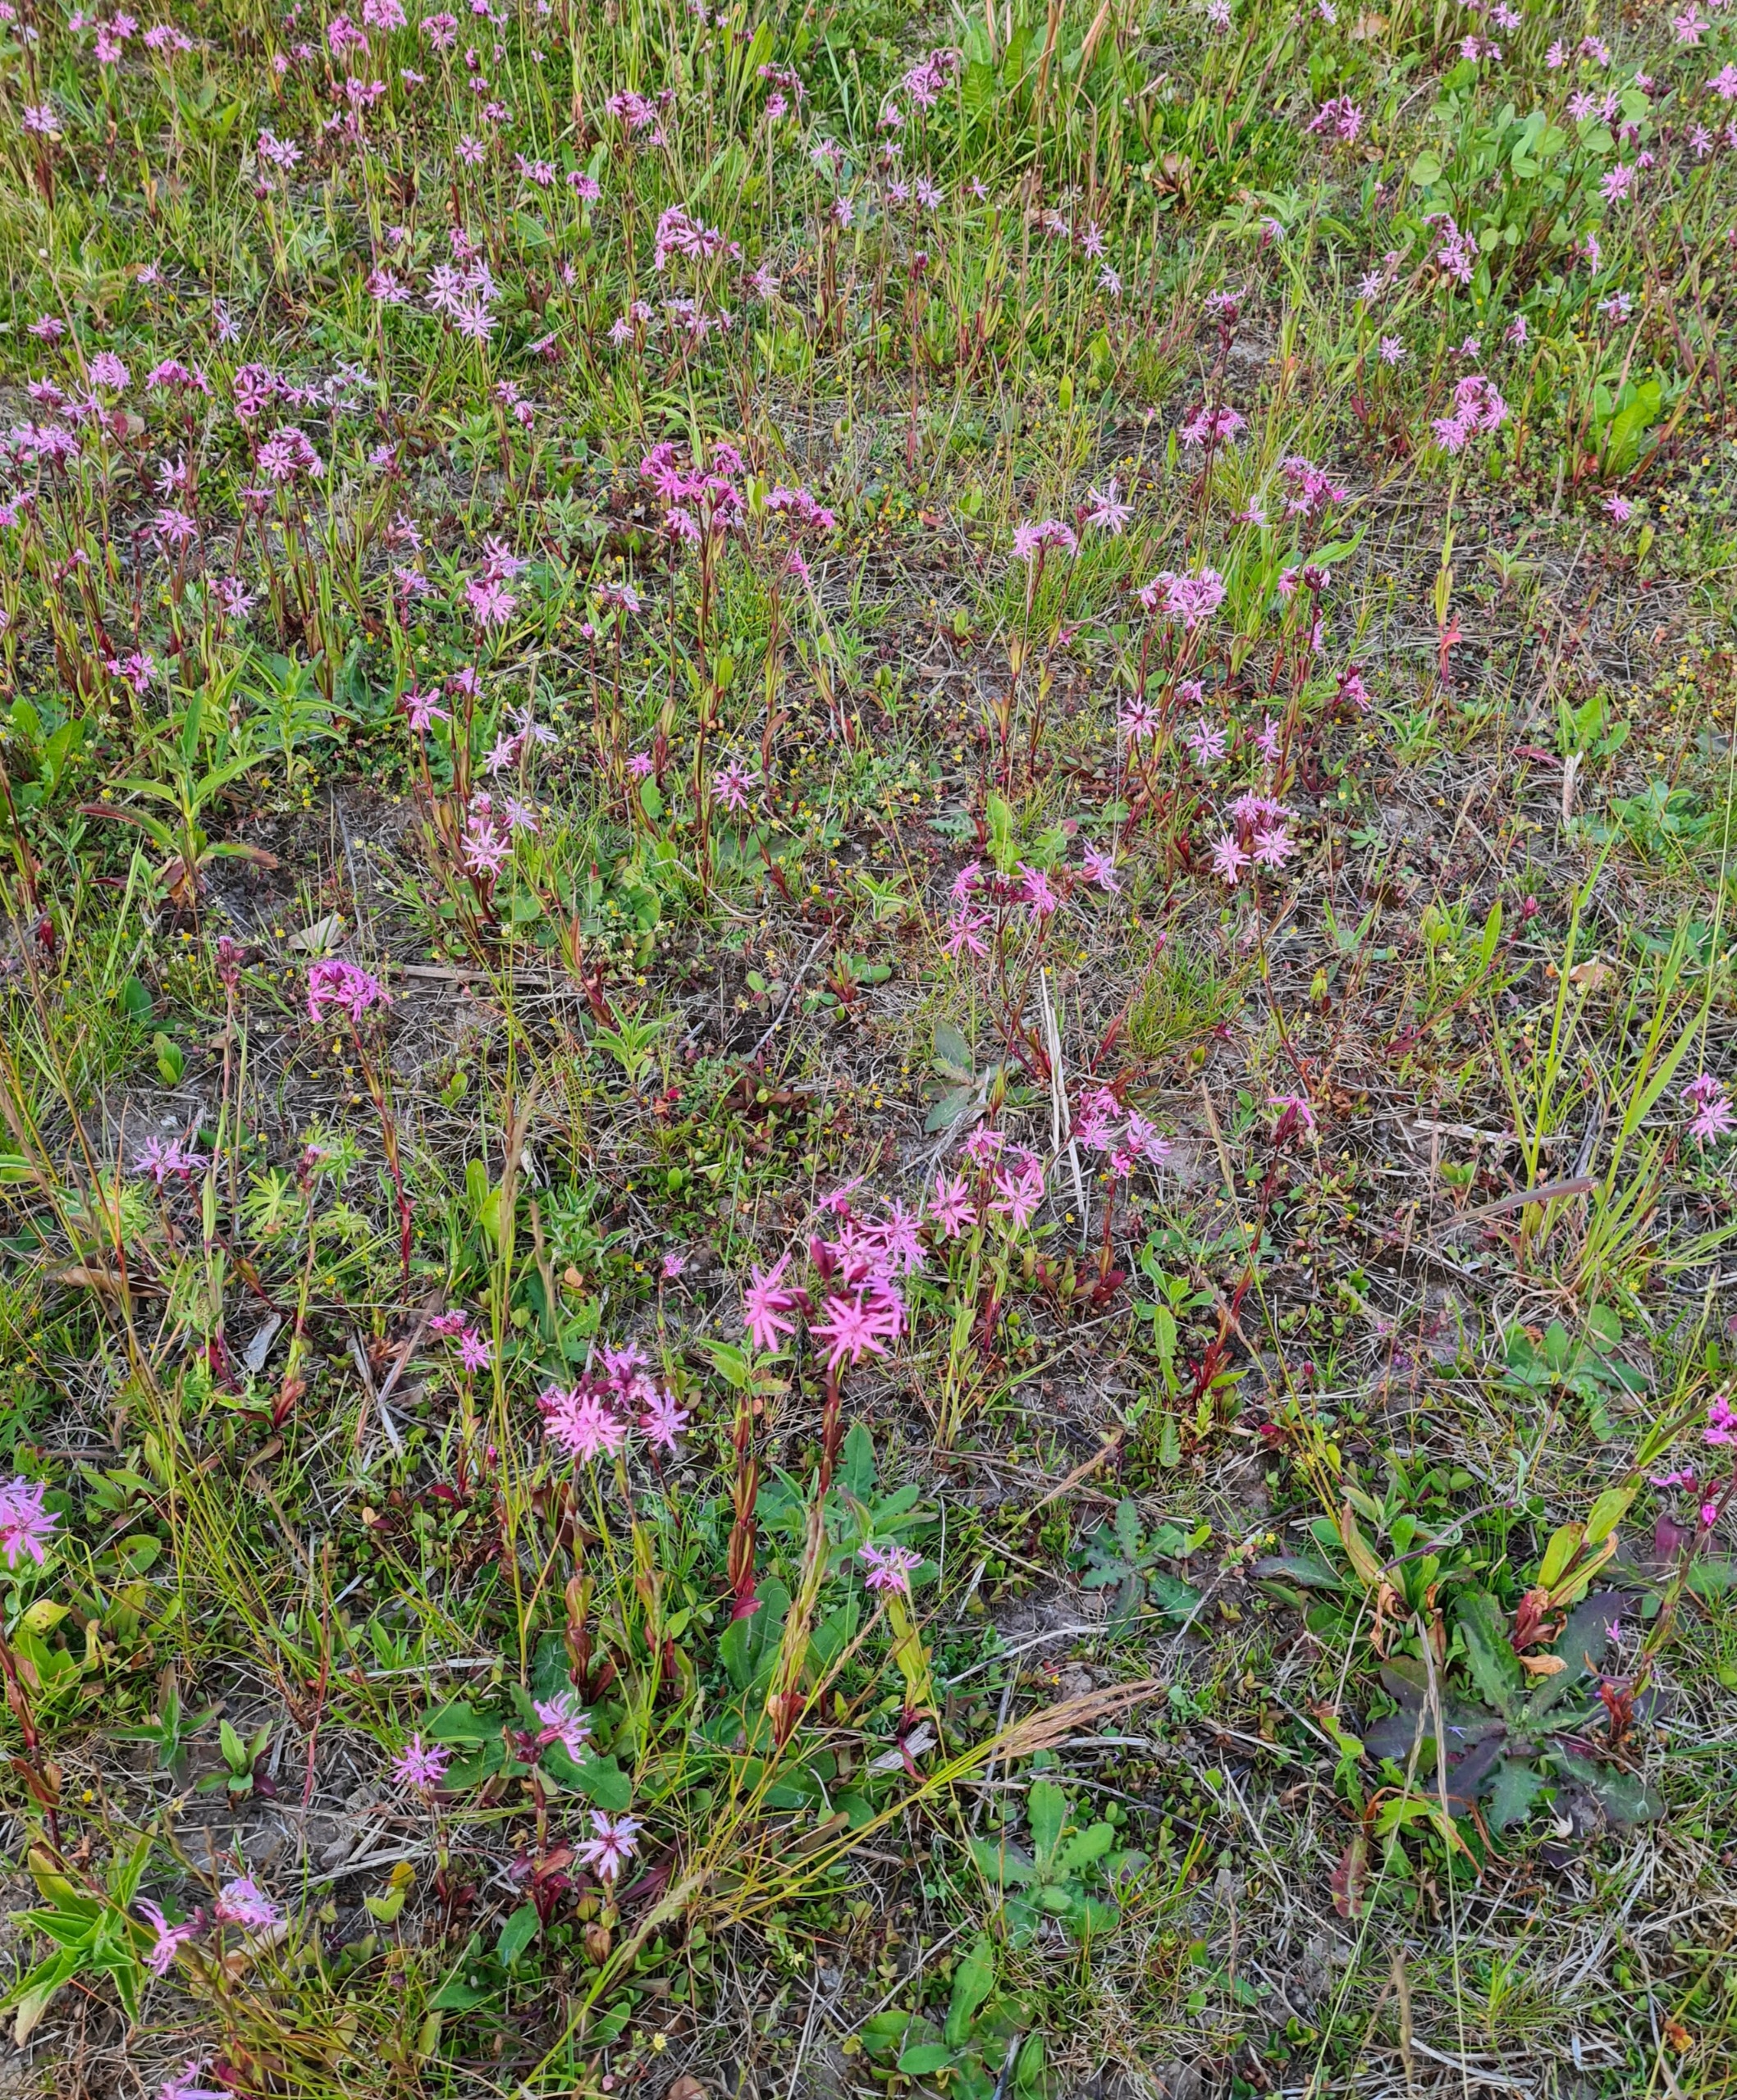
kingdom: Plantae
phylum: Tracheophyta
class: Magnoliopsida
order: Caryophyllales
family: Caryophyllaceae
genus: Silene
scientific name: Silene flos-cuculi
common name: Trævlekrone
